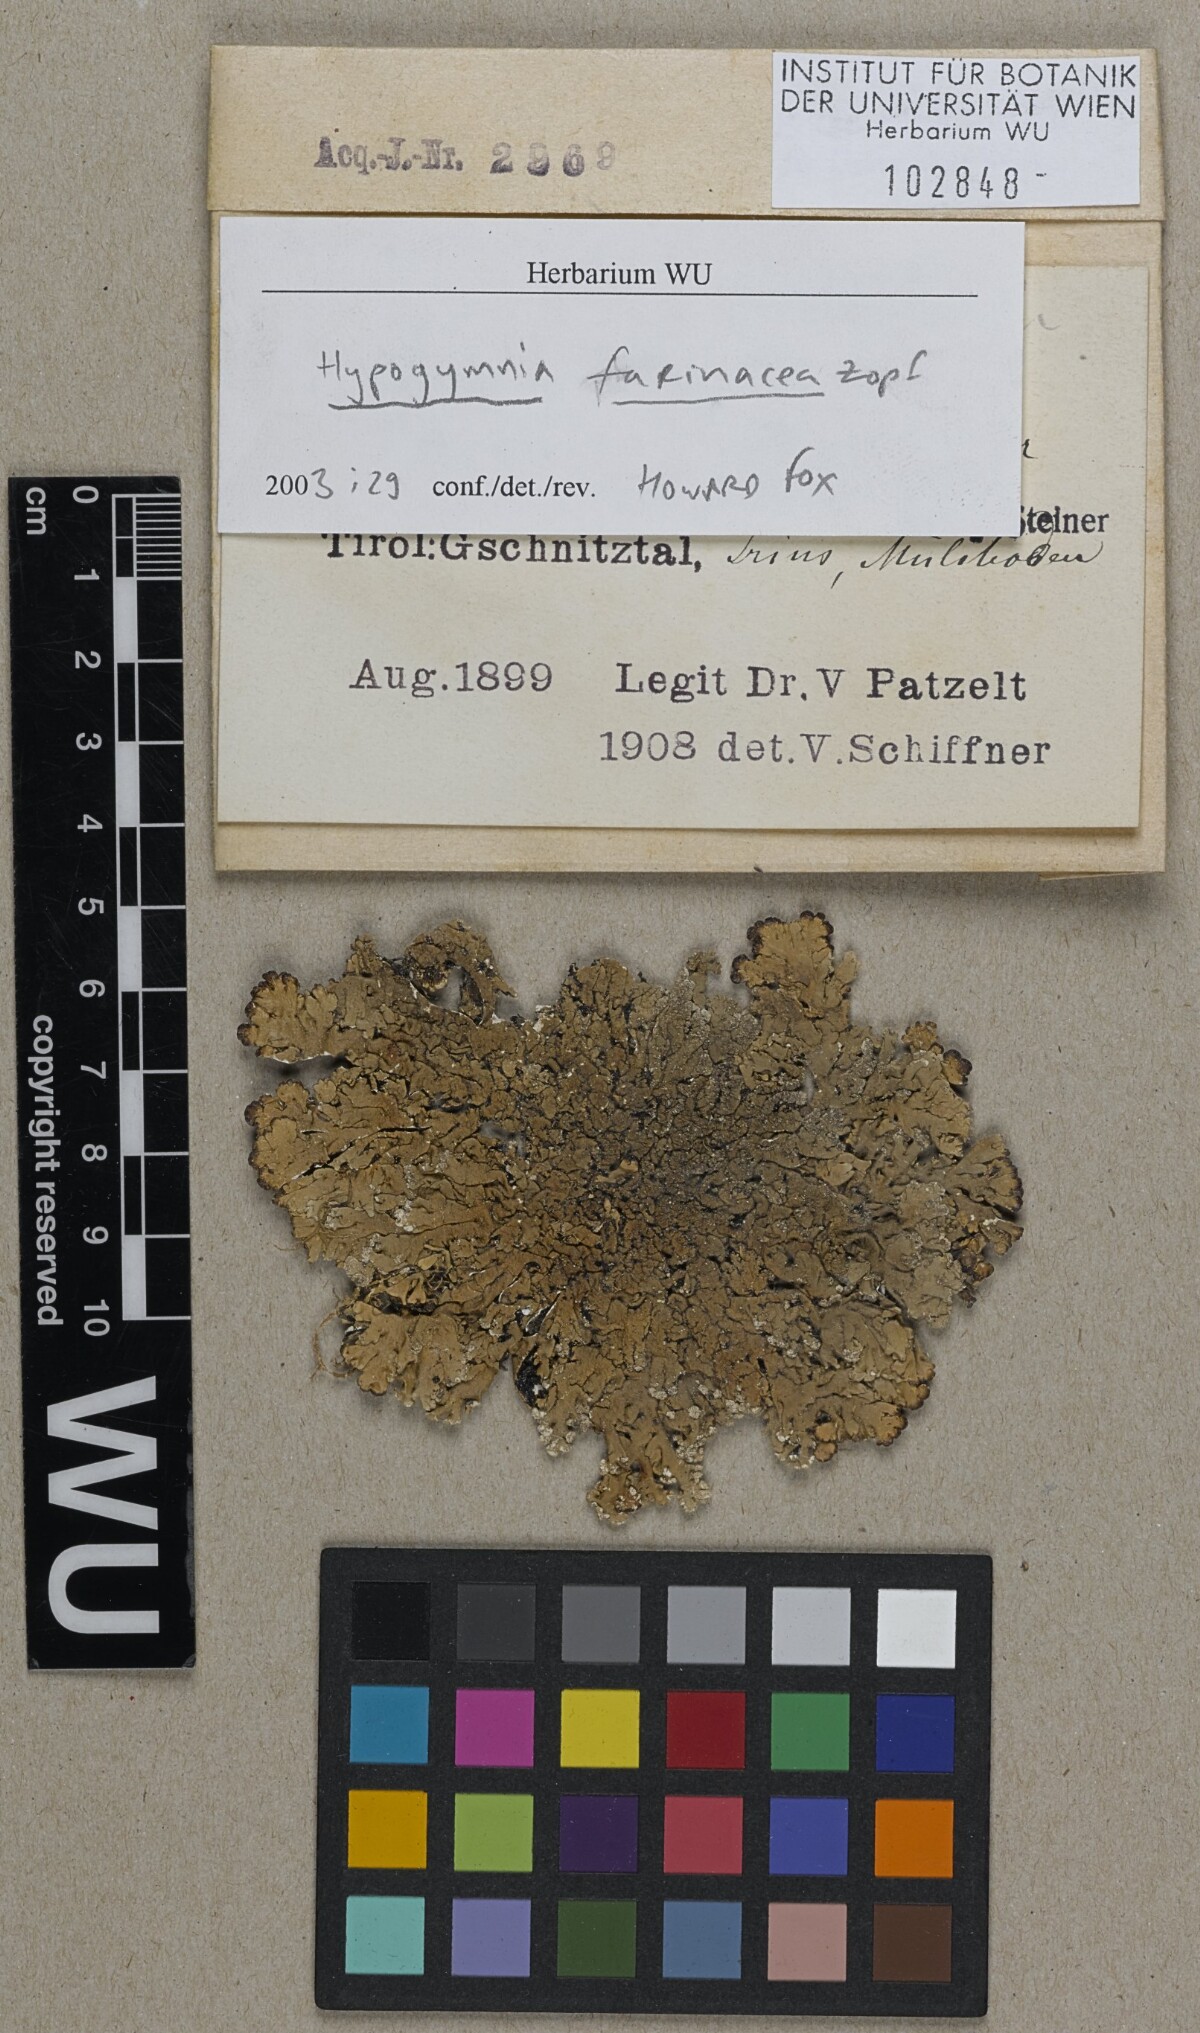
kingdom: Fungi
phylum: Ascomycota
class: Lecanoromycetes
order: Lecanorales
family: Parmeliaceae
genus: Hypogymnia
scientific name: Hypogymnia farinacea
